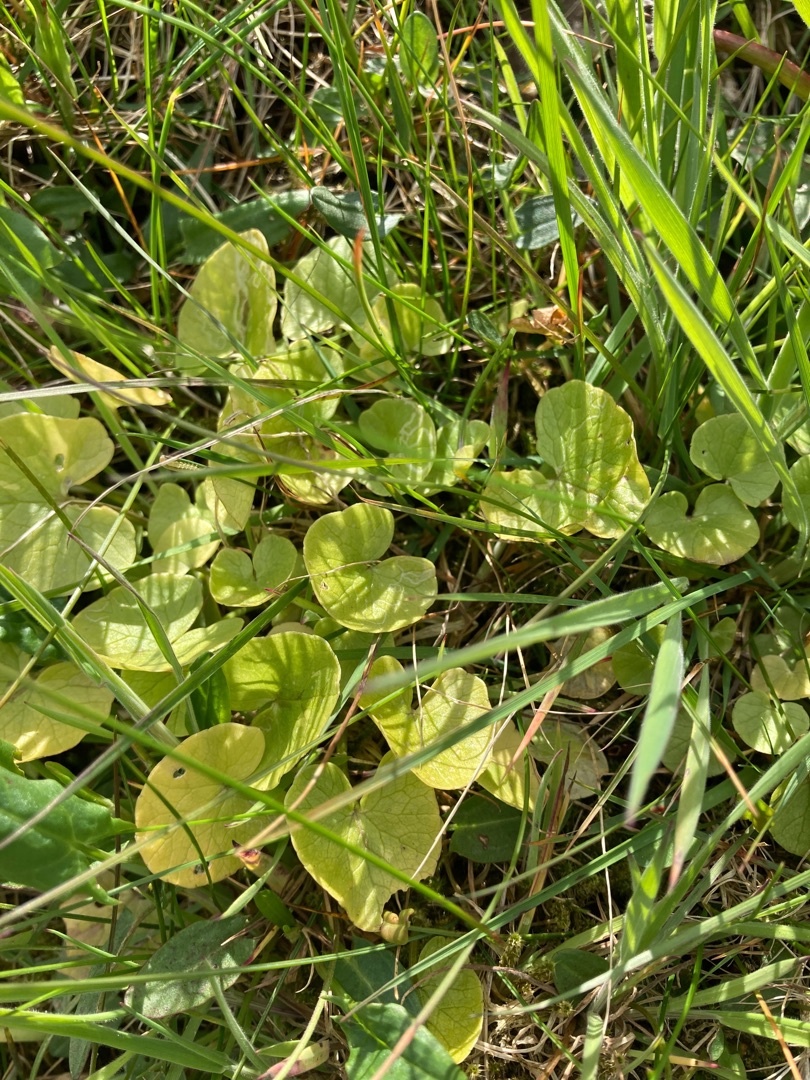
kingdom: Plantae
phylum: Tracheophyta
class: Magnoliopsida
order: Ranunculales
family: Ranunculaceae
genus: Ficaria
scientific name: Ficaria verna
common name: Vorterod
